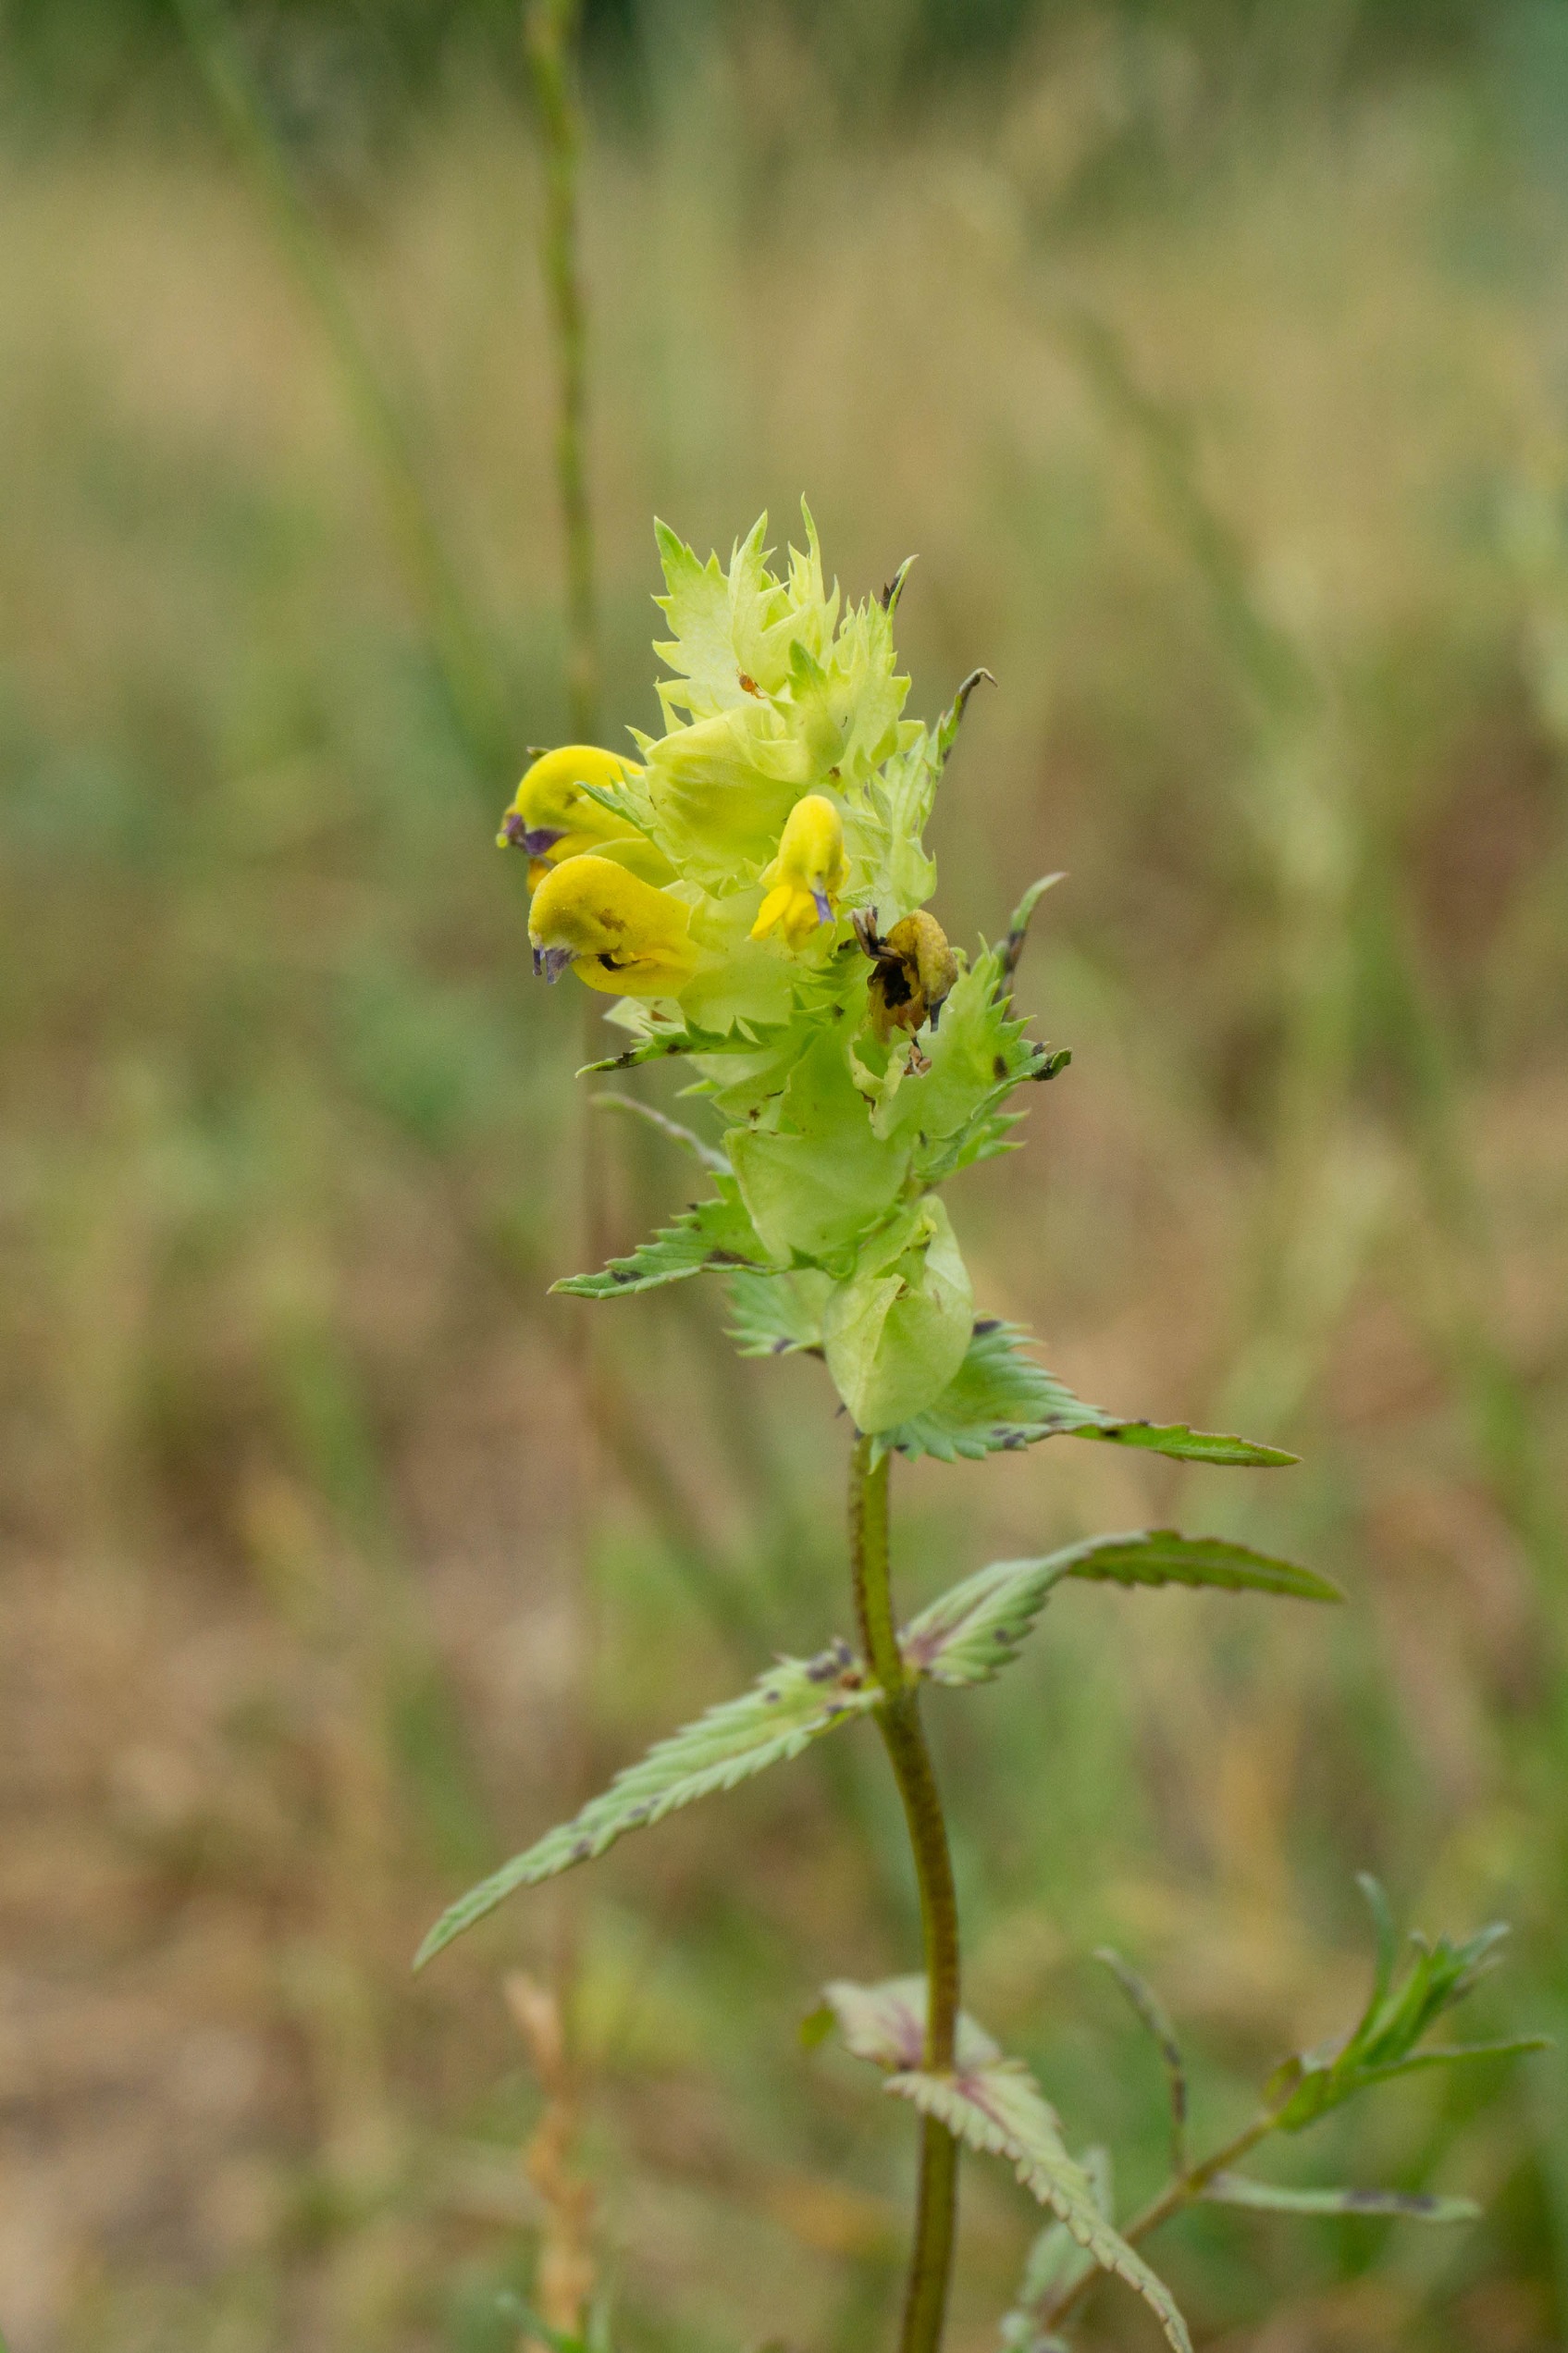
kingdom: Plantae
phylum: Tracheophyta
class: Magnoliopsida
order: Lamiales
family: Orobanchaceae
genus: Rhinanthus
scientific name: Rhinanthus
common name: Stor skjaller
